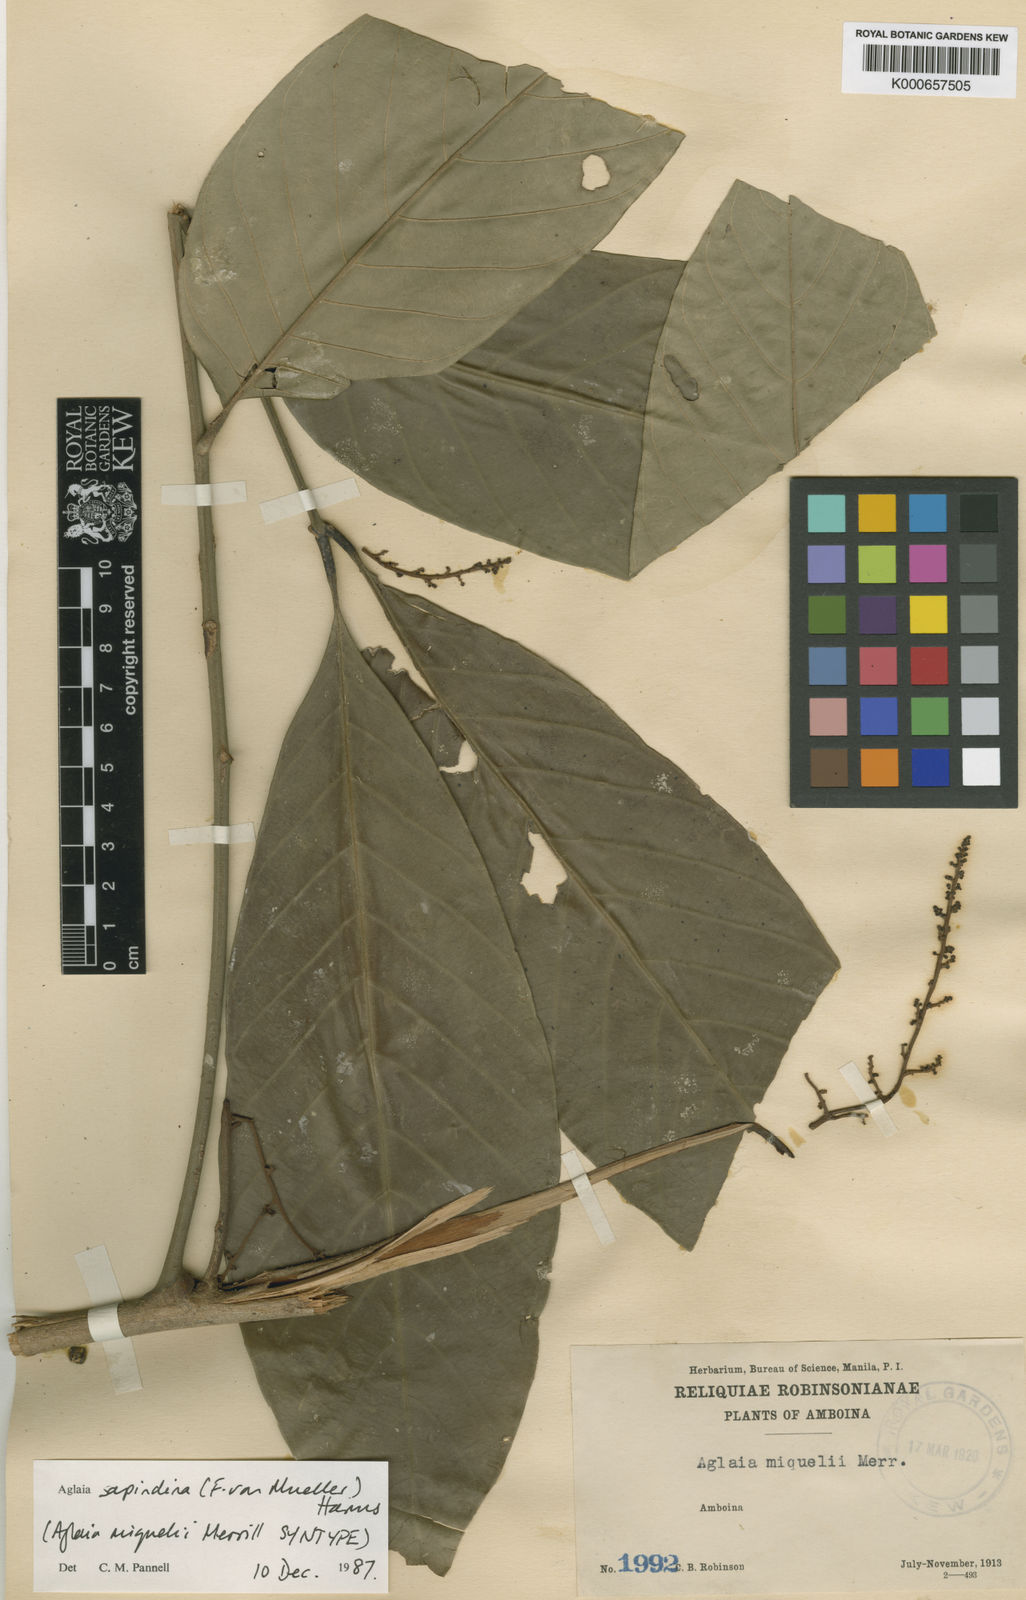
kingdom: Plantae
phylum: Tracheophyta
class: Magnoliopsida
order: Sapindales
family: Meliaceae
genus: Aglaia
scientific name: Aglaia sapindina
